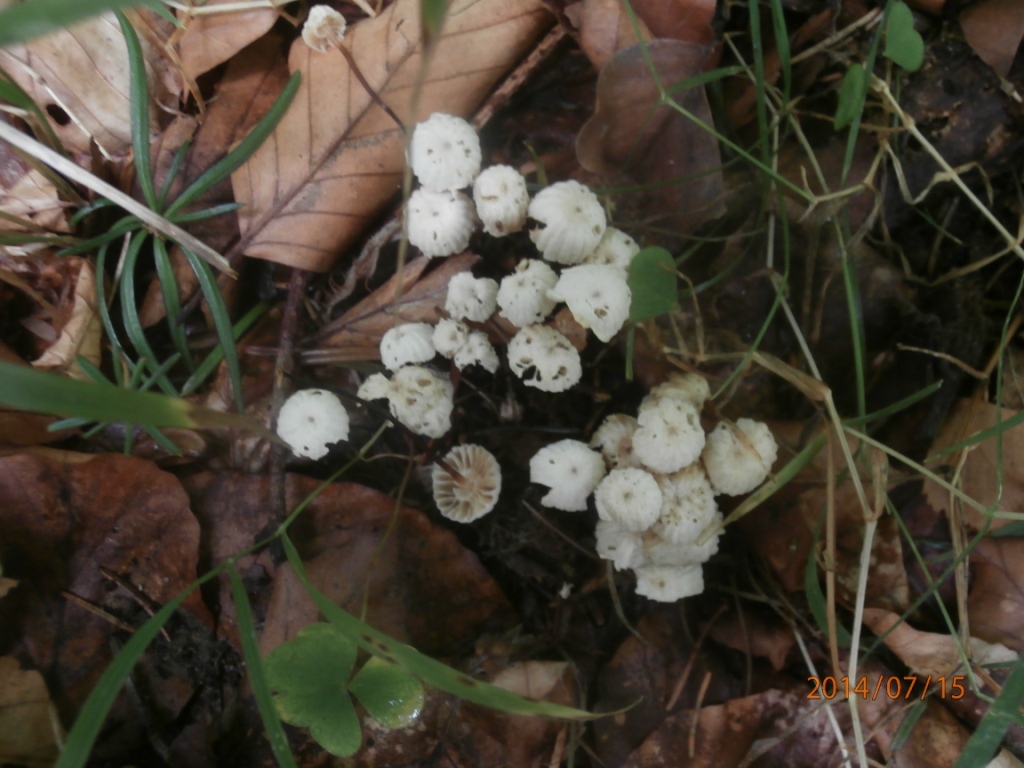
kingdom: Fungi
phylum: Basidiomycota
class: Agaricomycetes
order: Agaricales
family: Marasmiaceae
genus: Marasmius
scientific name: Marasmius rotula
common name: hjul-bruskhat
